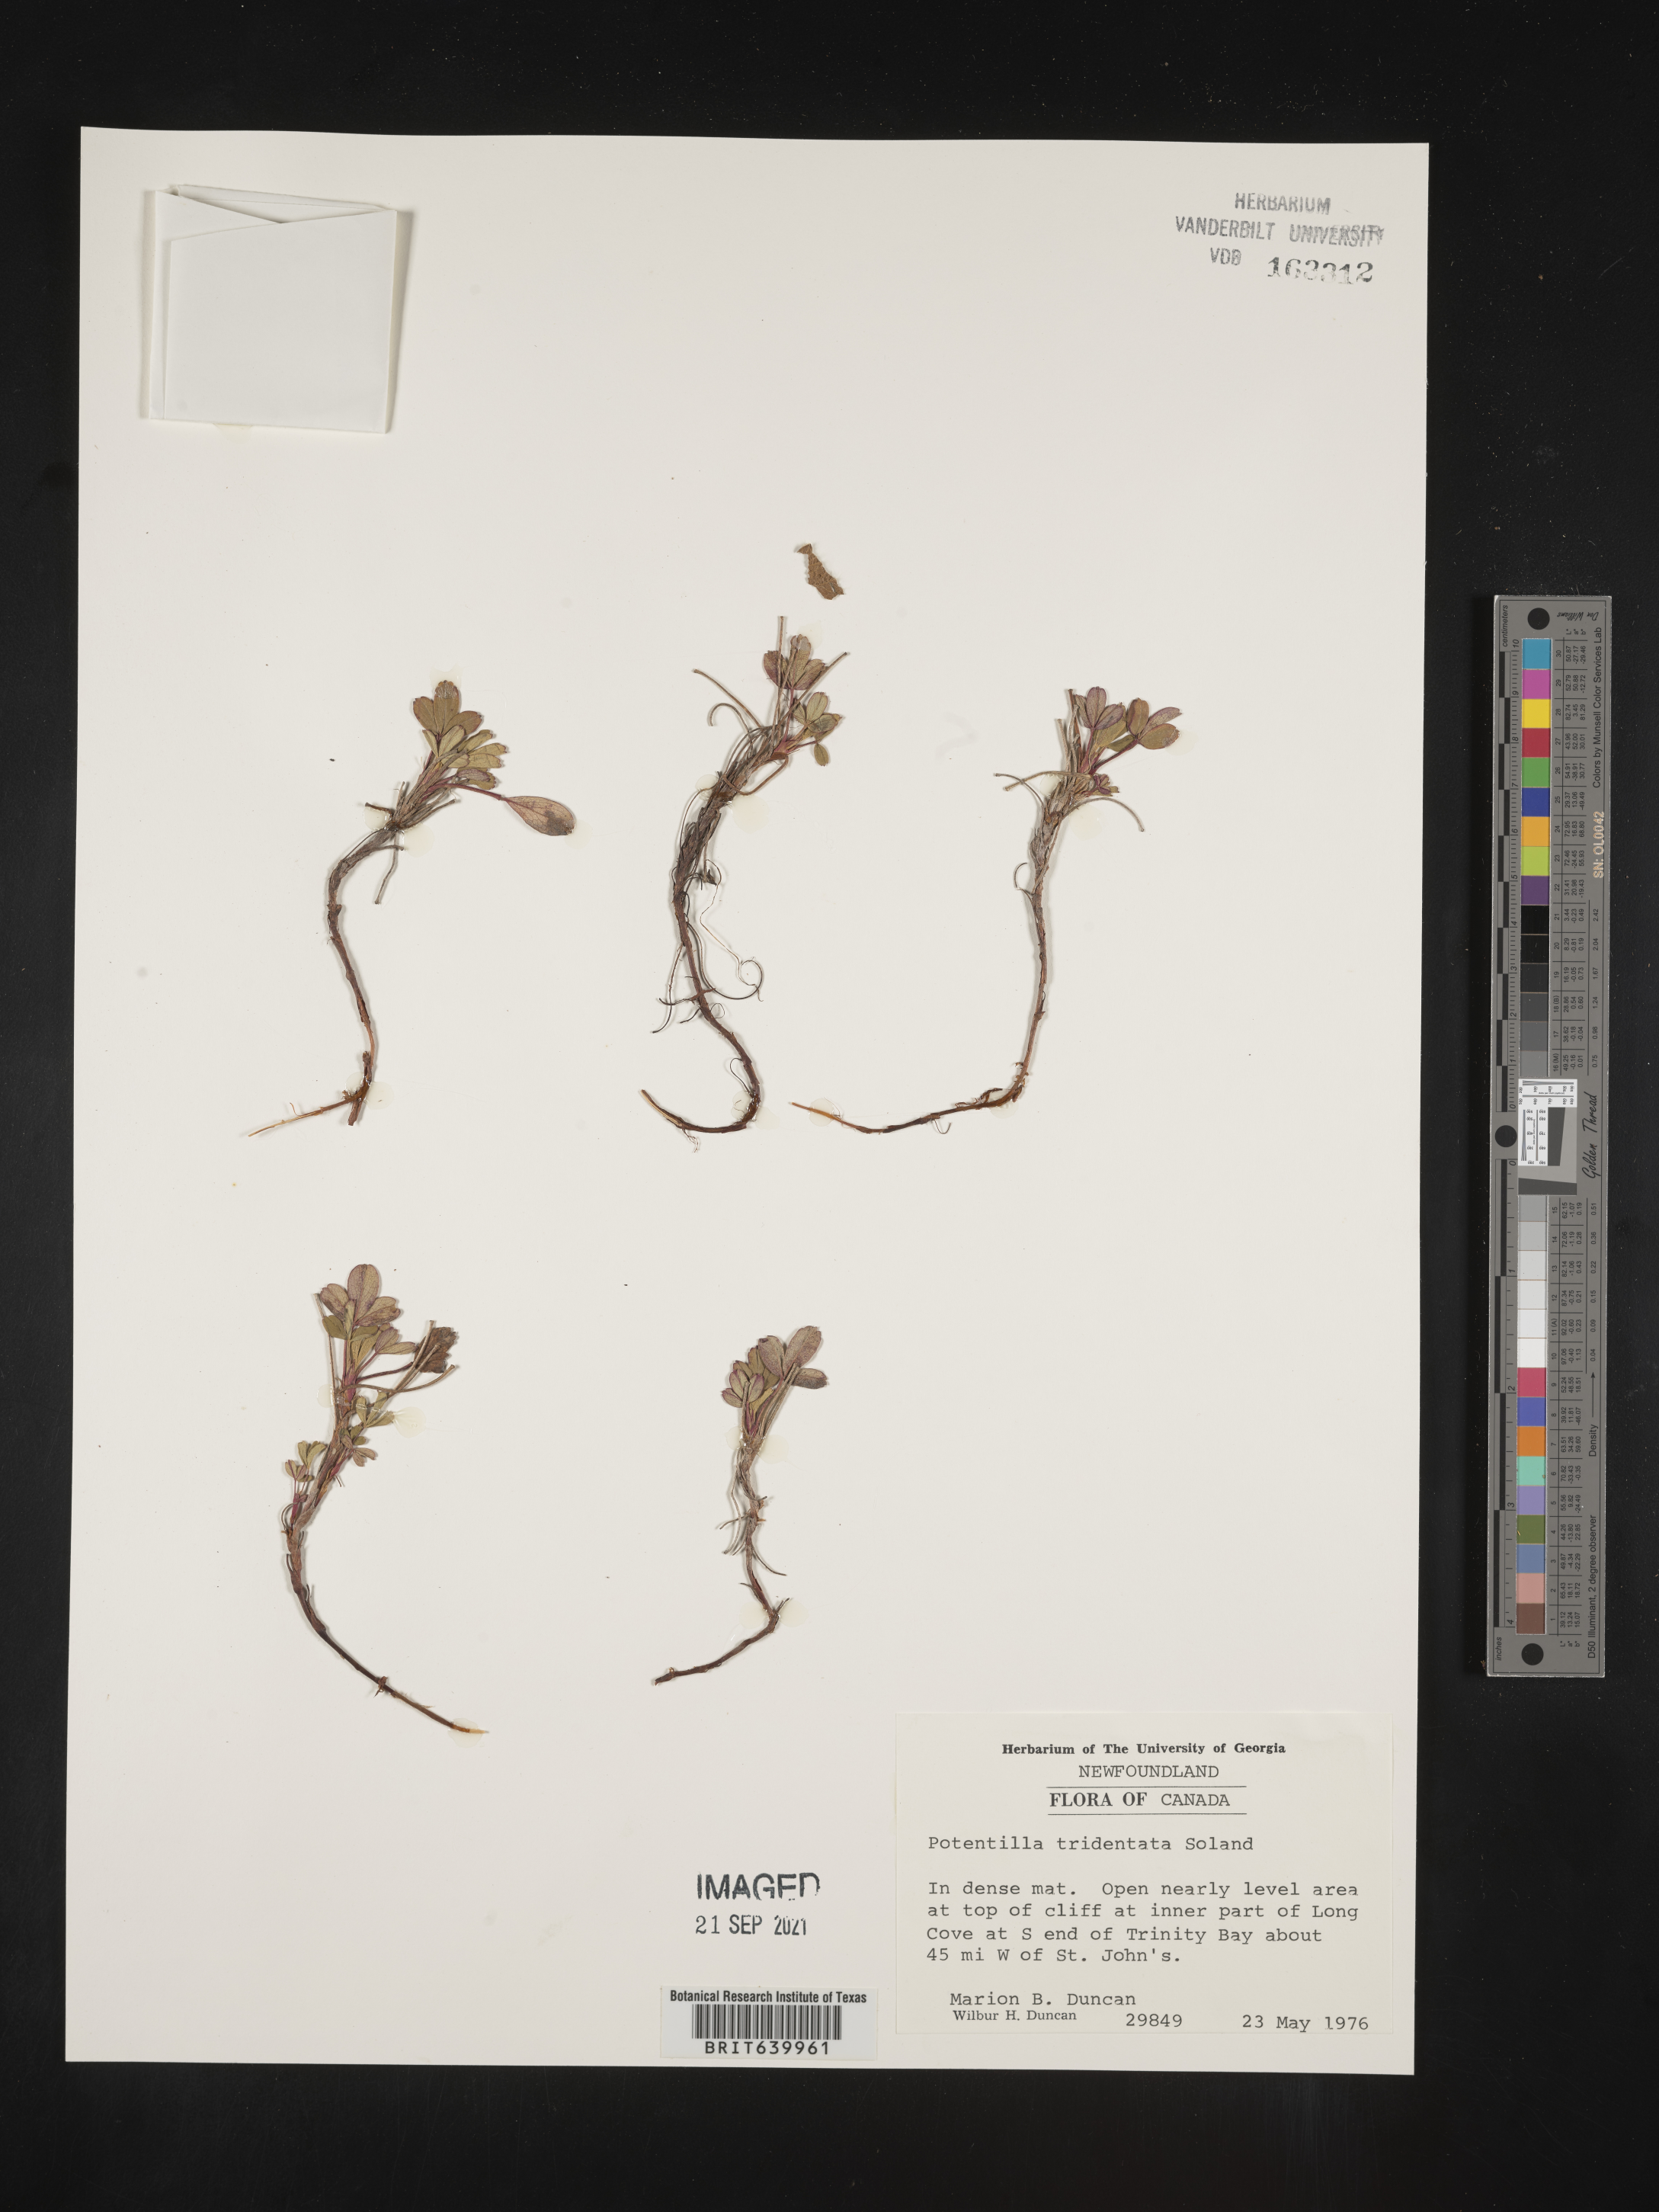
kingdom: Plantae
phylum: Tracheophyta
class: Magnoliopsida
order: Rosales
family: Rosaceae
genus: Potentilla
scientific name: Potentilla
